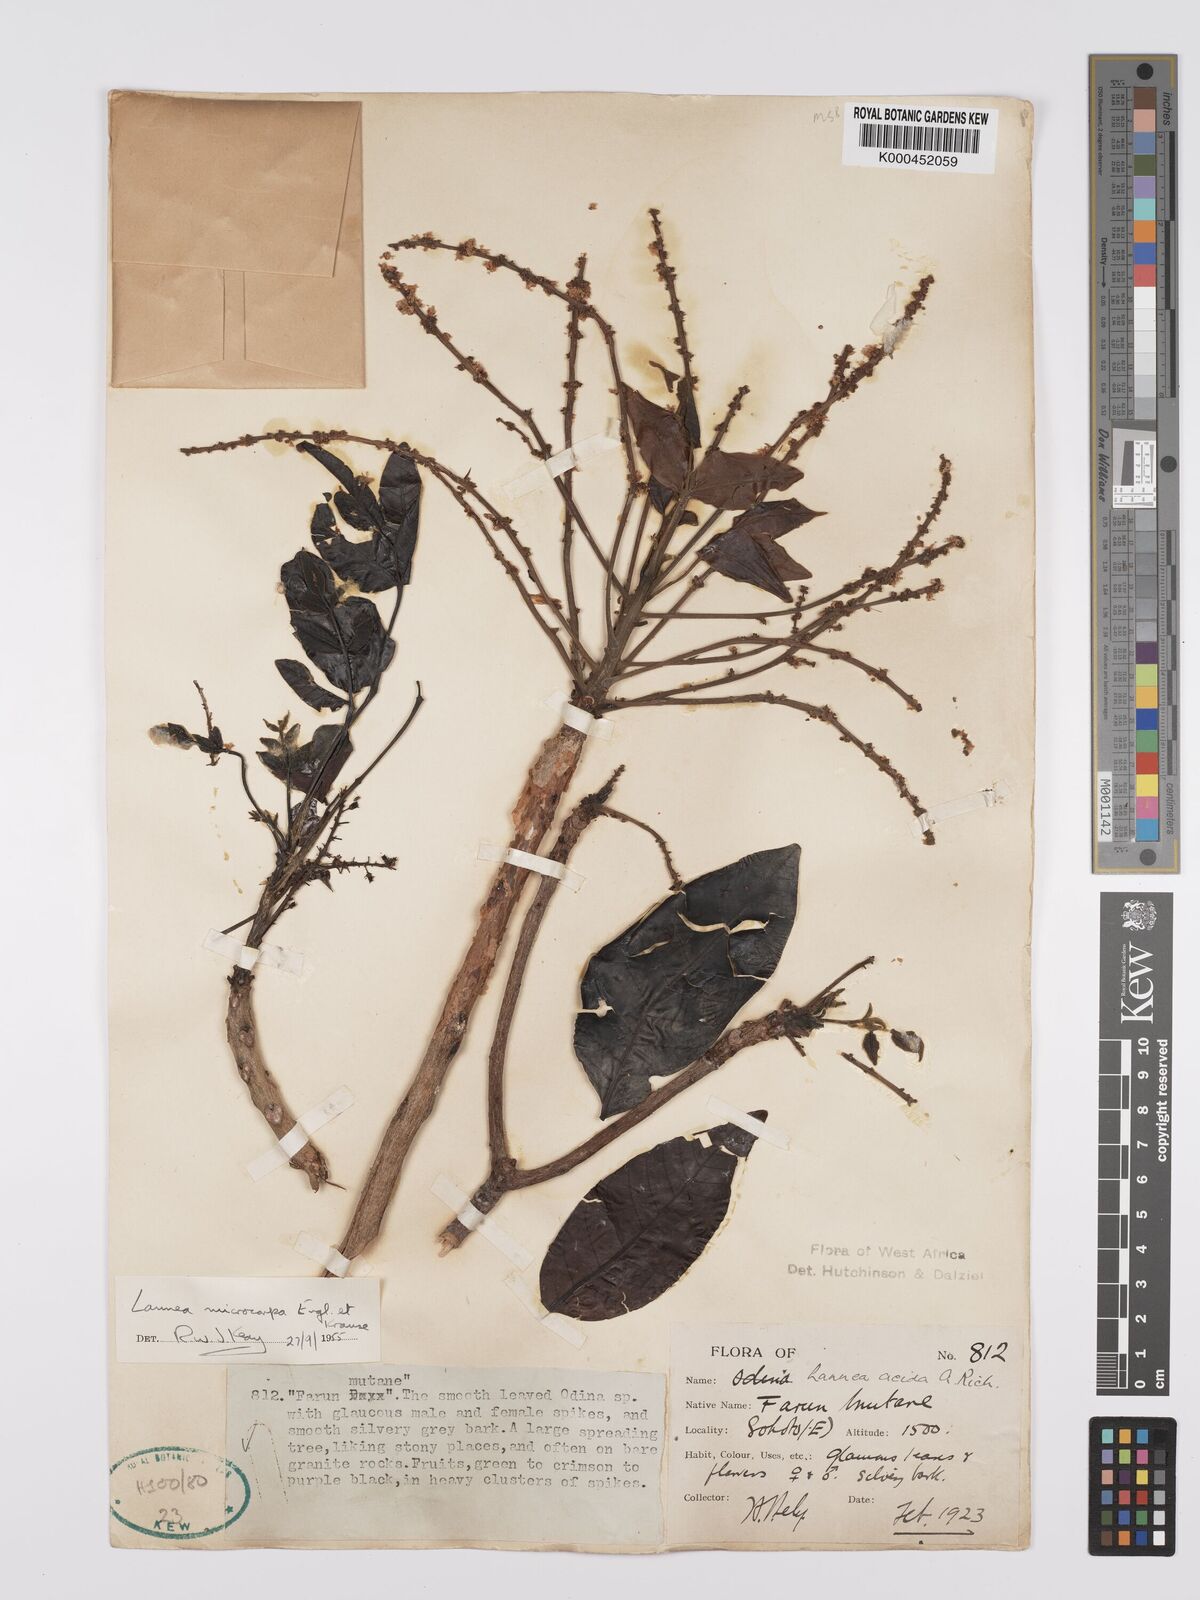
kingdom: Plantae
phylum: Tracheophyta
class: Magnoliopsida
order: Sapindales
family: Anacardiaceae
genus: Lannea
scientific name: Lannea microcarpa
